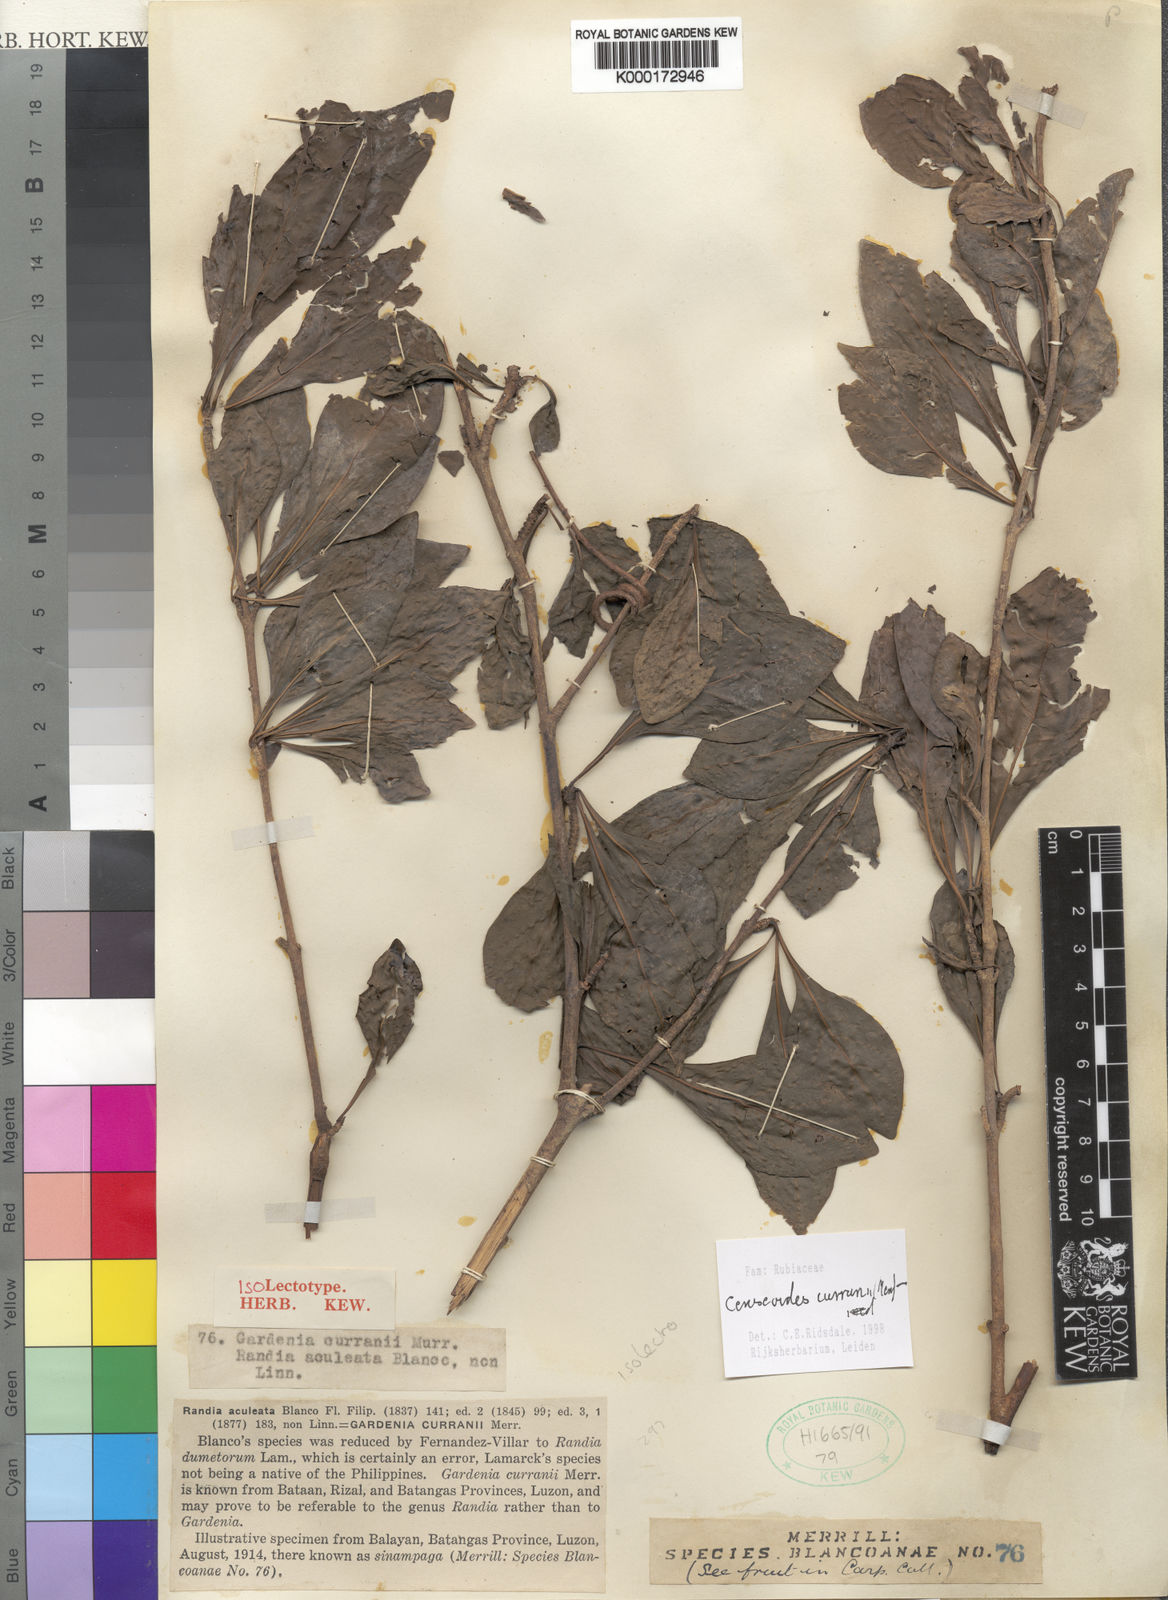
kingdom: Plantae
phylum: Tracheophyta
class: Magnoliopsida
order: Gentianales
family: Rubiaceae
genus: Ceriscoides
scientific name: Ceriscoides curranii
